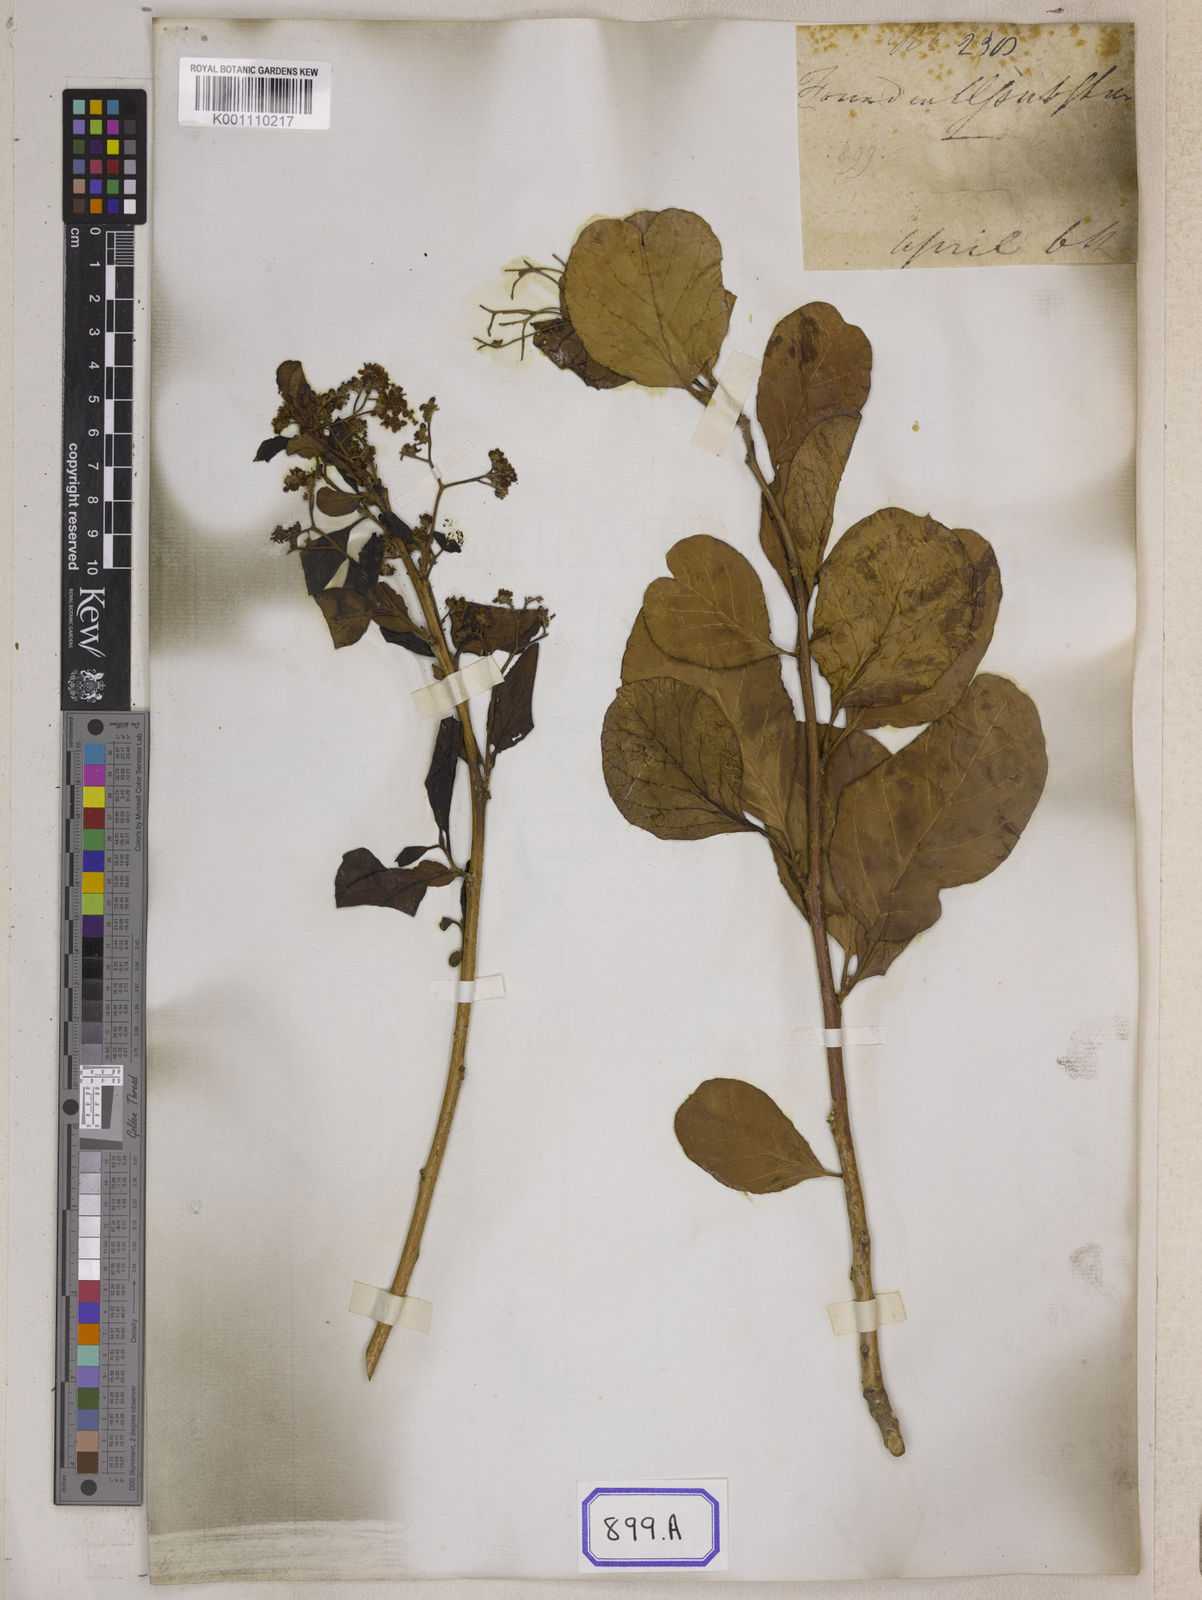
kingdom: Plantae
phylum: Tracheophyta
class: Magnoliopsida
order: Boraginales
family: Ehretiaceae
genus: Ehretia
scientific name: Ehretia laevis
